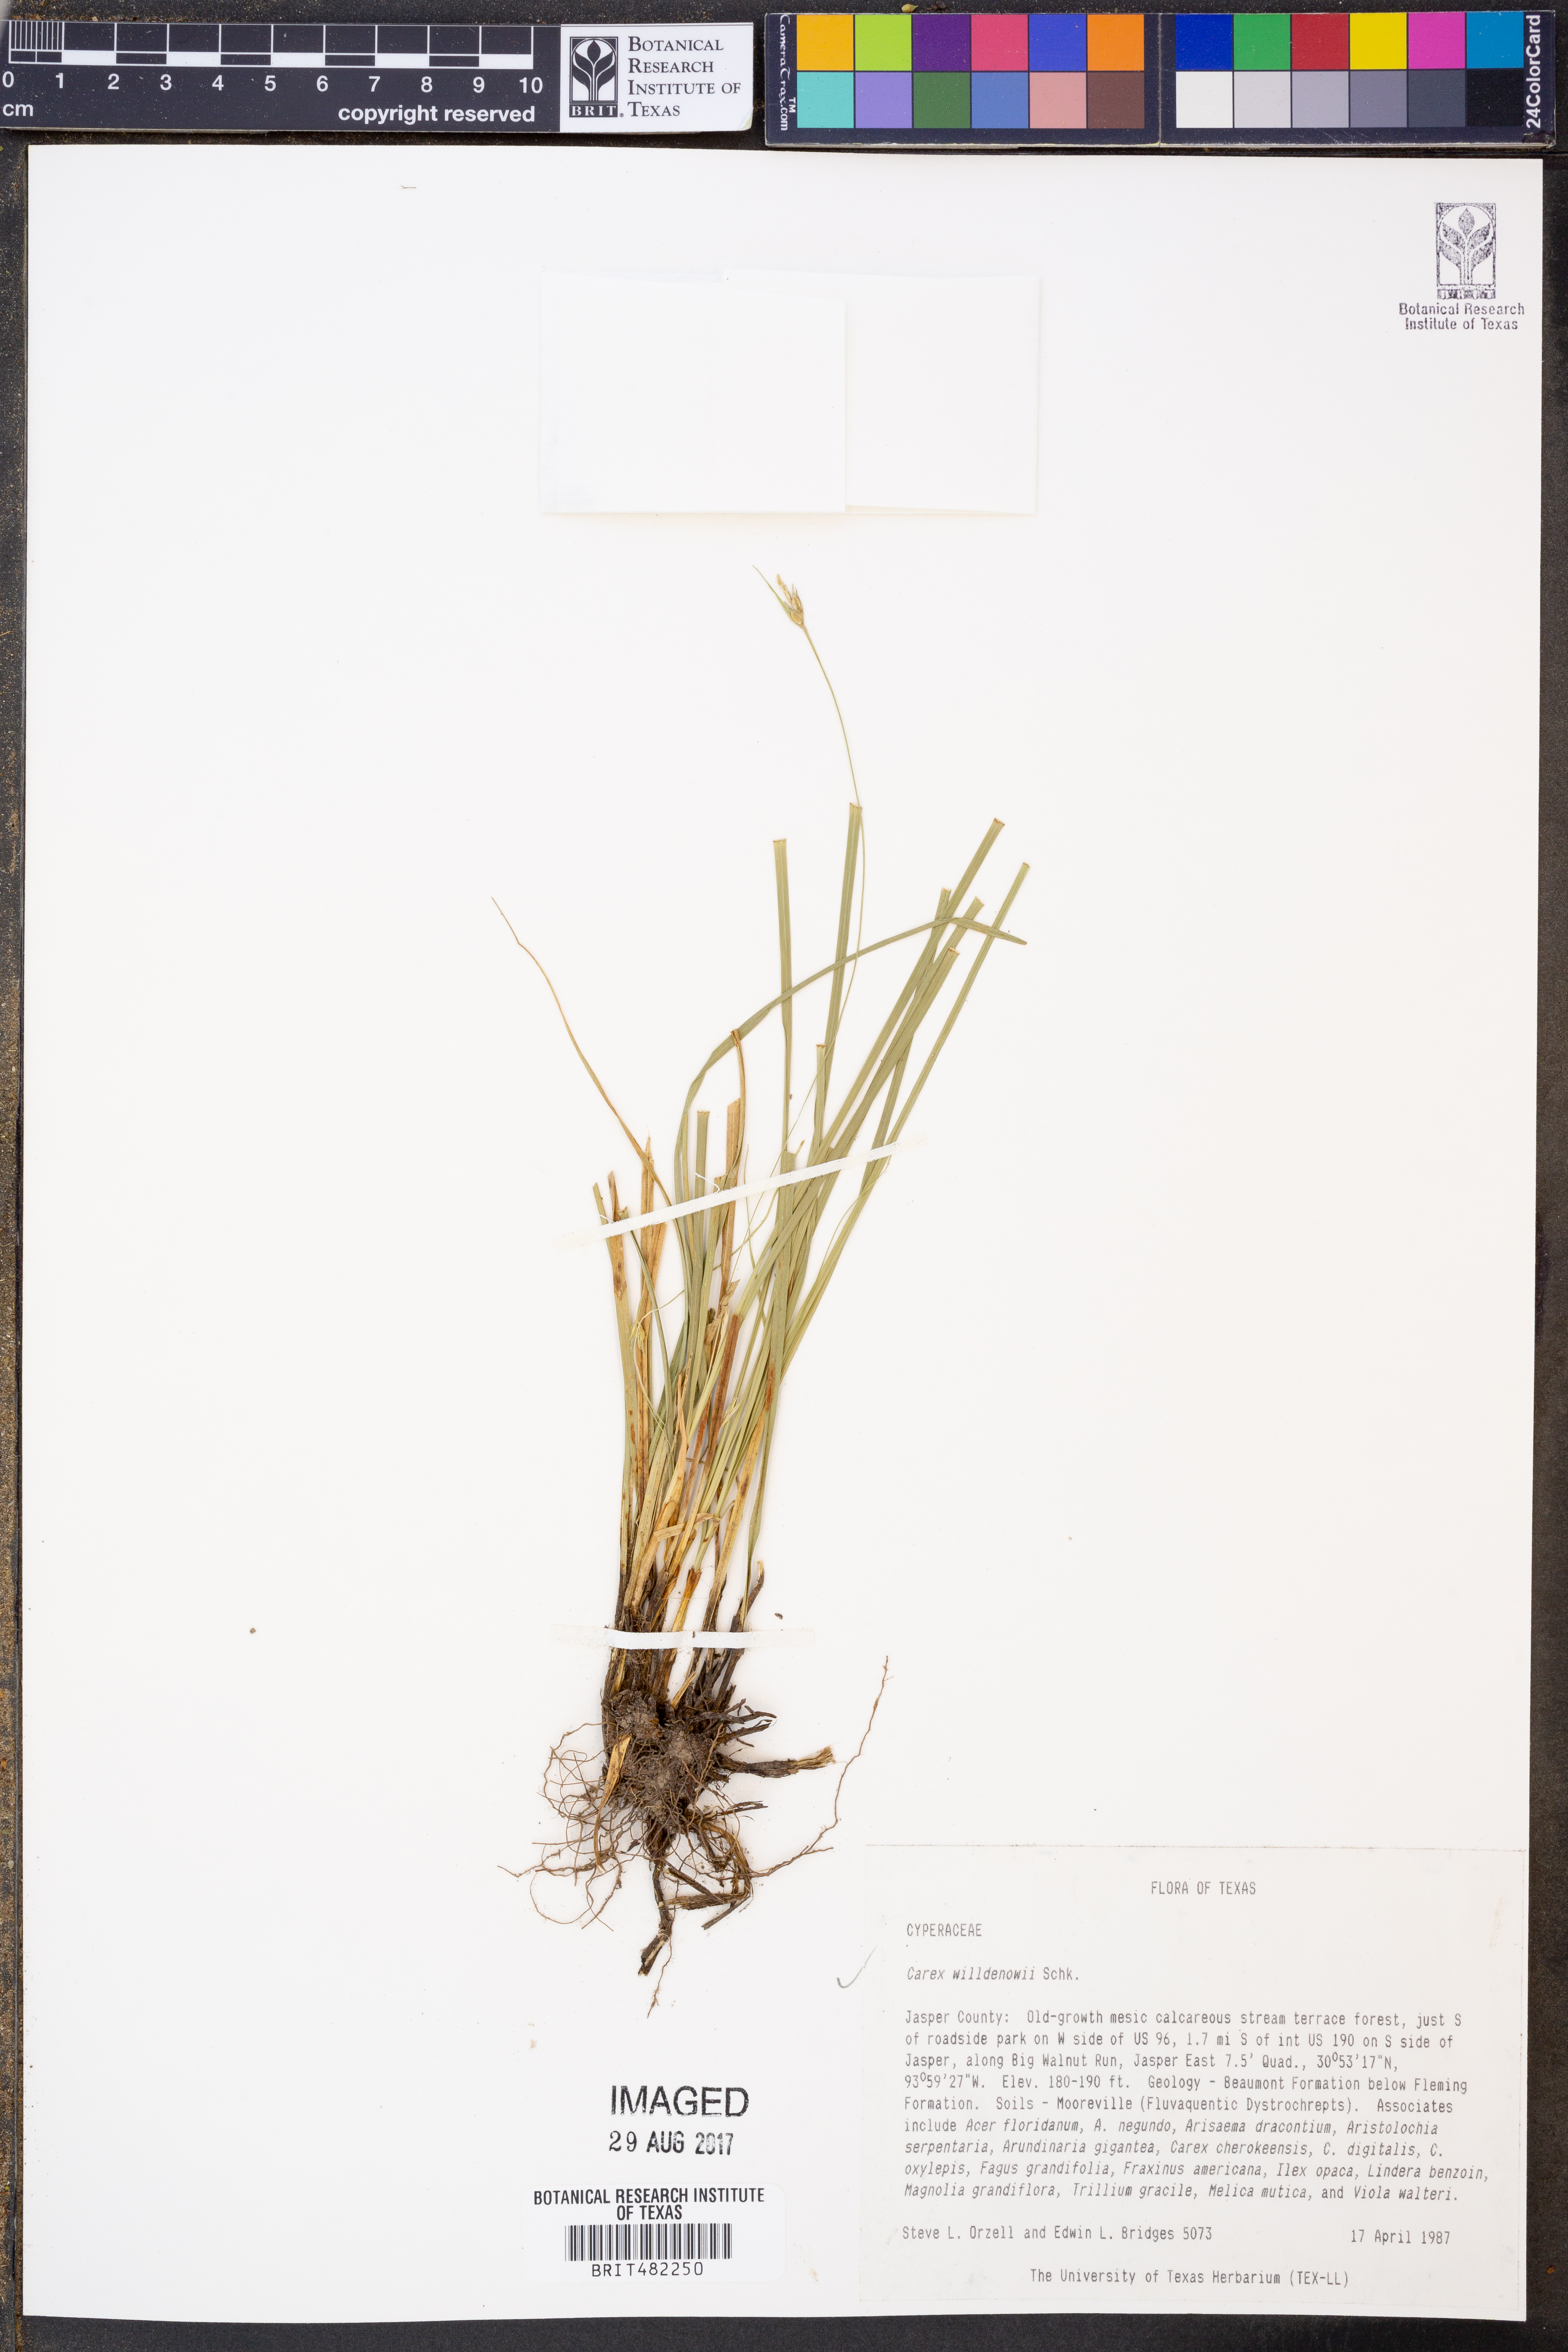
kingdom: Plantae
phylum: Tracheophyta
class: Liliopsida
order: Poales
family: Cyperaceae
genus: Carex
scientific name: Carex willdenowii
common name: Willdenow's sedge
